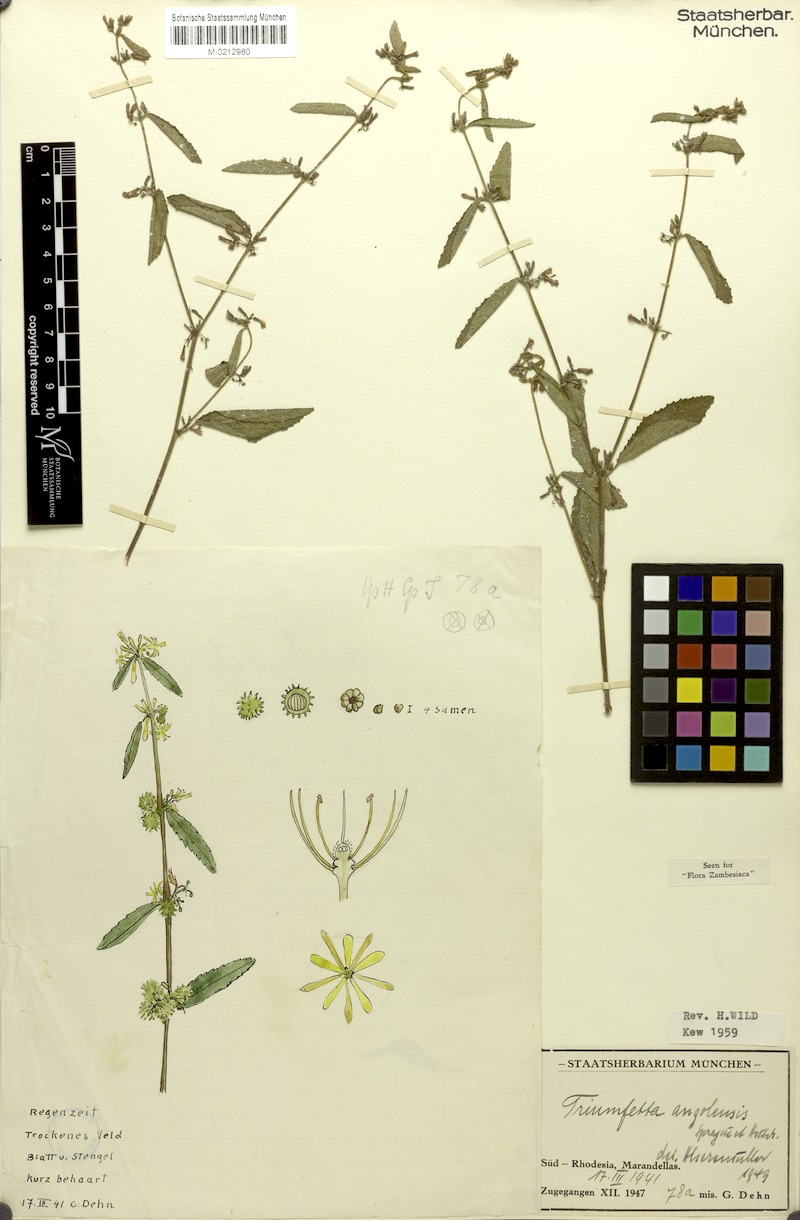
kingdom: Plantae
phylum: Tracheophyta
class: Magnoliopsida
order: Malvales
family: Malvaceae
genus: Triumfetta
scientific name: Triumfetta angolensis
